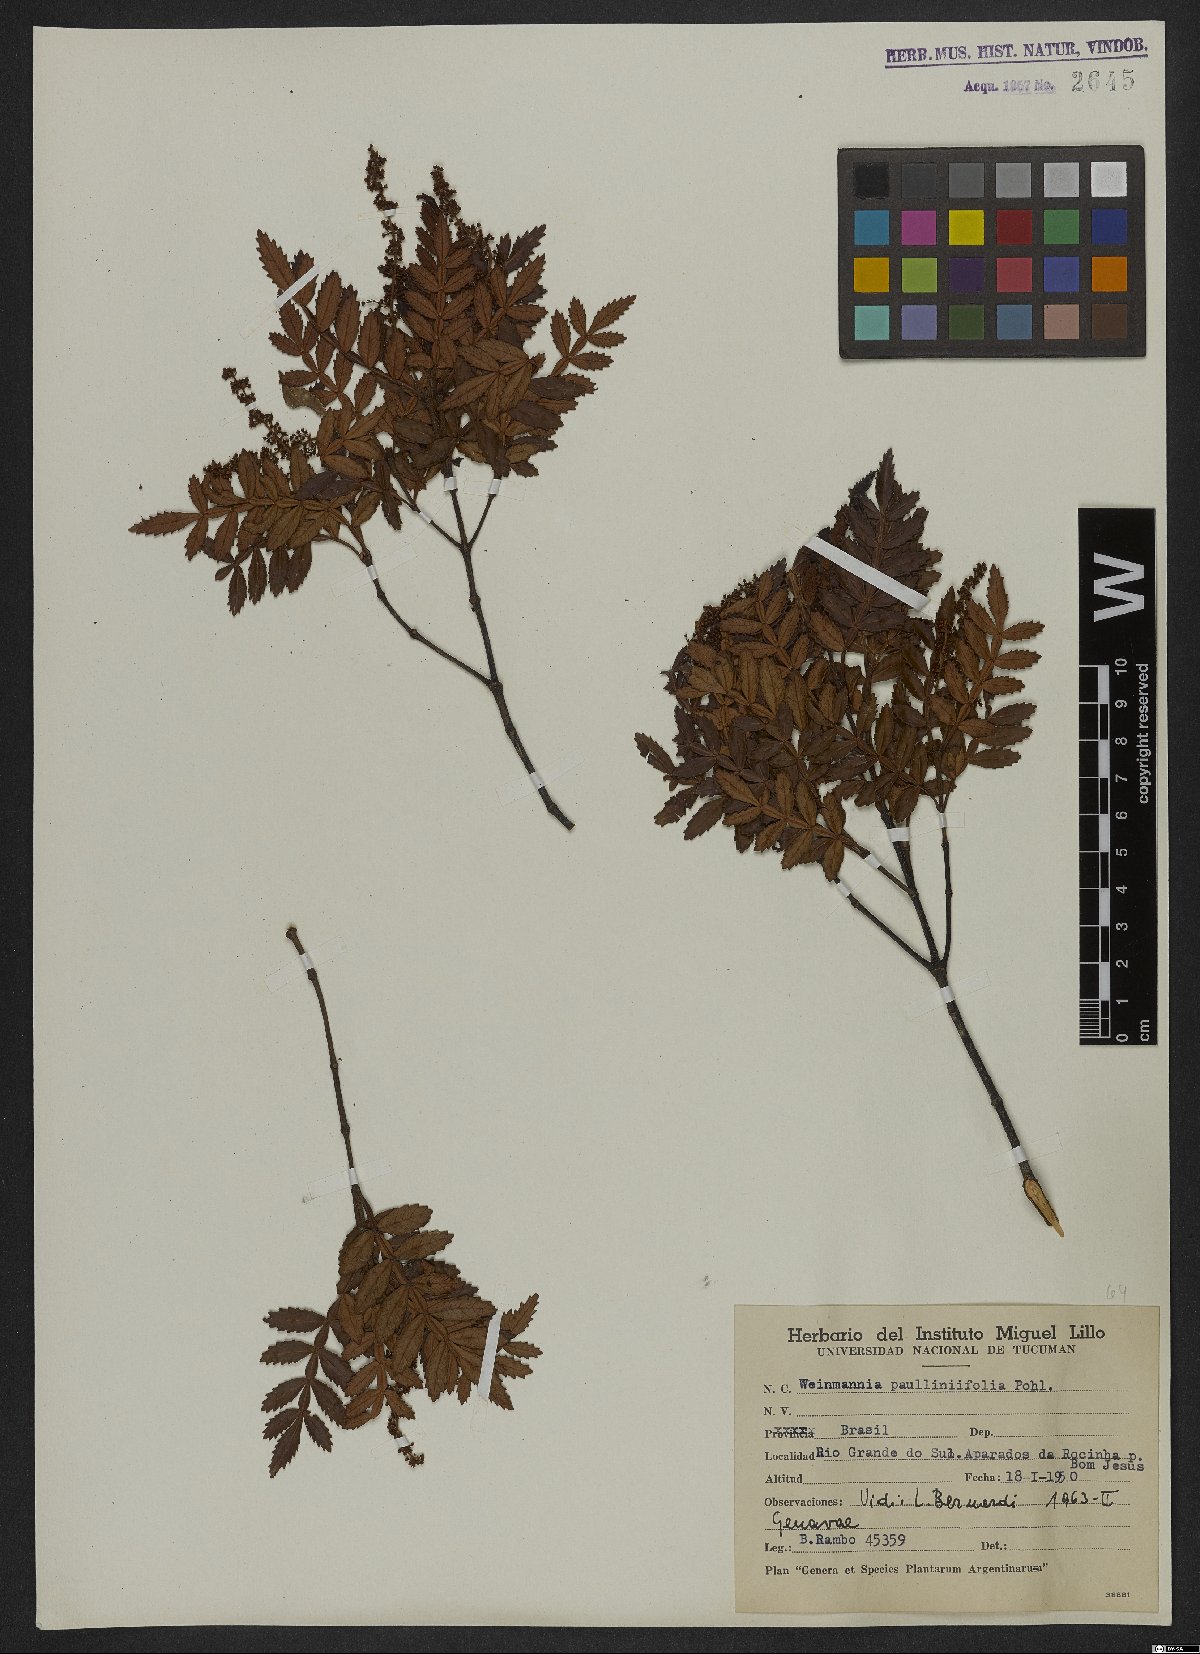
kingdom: Plantae
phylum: Tracheophyta
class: Magnoliopsida
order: Oxalidales
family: Cunoniaceae
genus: Weinmannia
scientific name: Weinmannia paullinifolia
